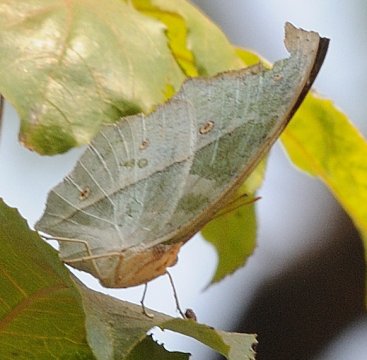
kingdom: Animalia
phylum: Arthropoda
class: Insecta
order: Lepidoptera
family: Nymphalidae
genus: Salamis
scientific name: Salamis Protogoniomorpha parhassus
